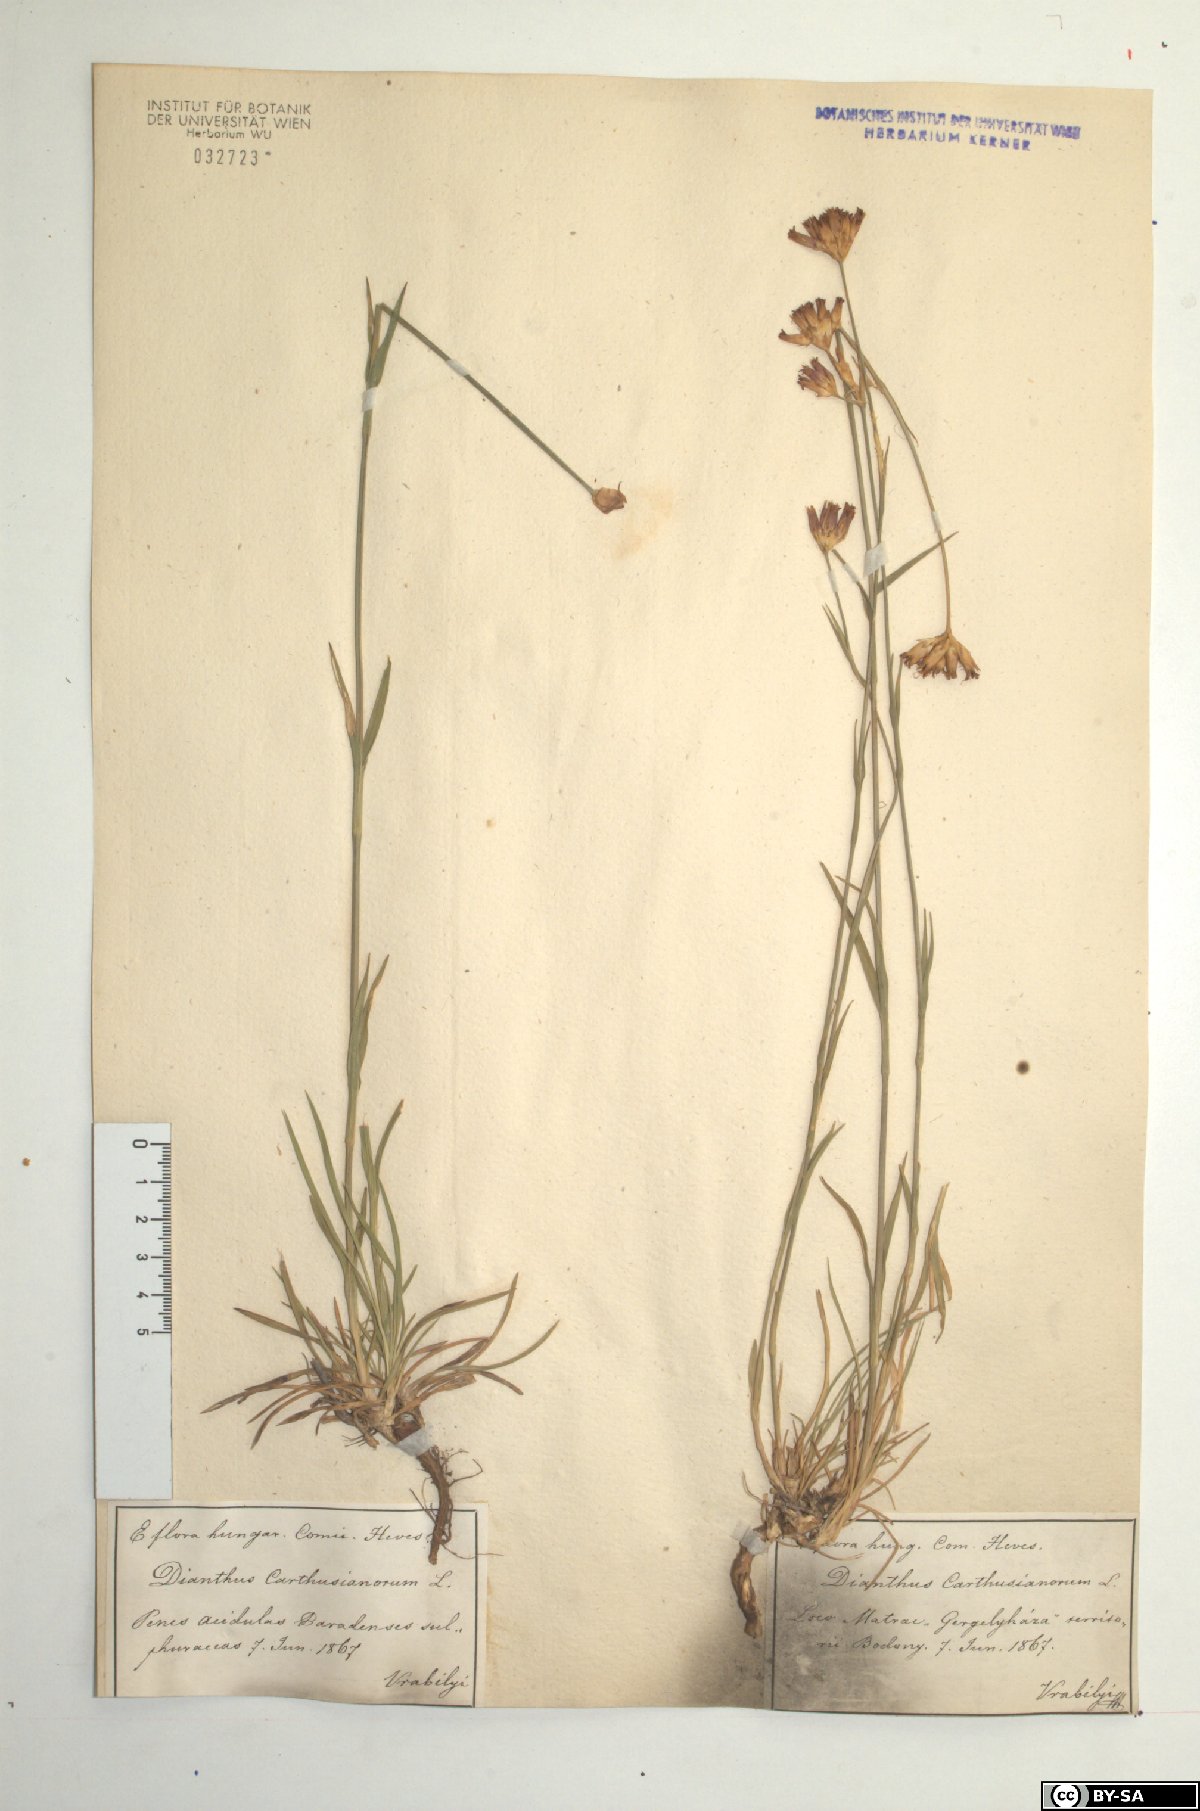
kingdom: Plantae
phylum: Tracheophyta
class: Magnoliopsida
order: Caryophyllales
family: Caryophyllaceae
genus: Dianthus
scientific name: Dianthus carthusianorum
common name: Carthusian pink
